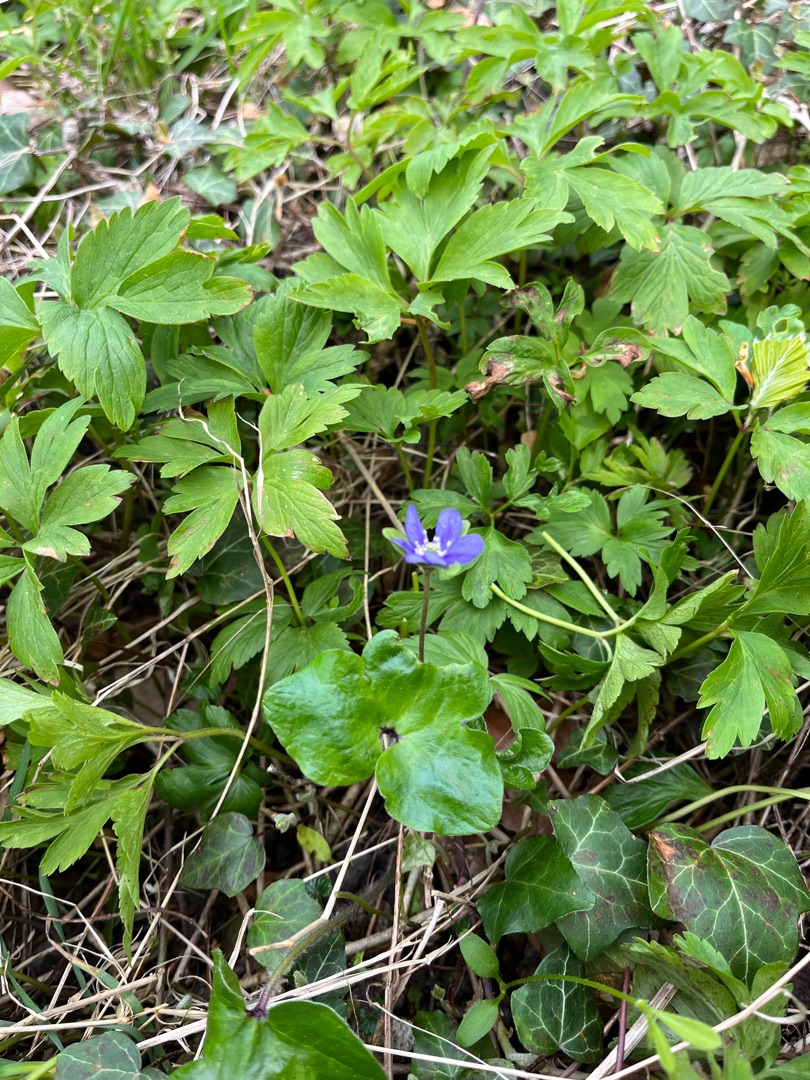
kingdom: Plantae
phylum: Tracheophyta
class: Magnoliopsida
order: Ranunculales
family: Ranunculaceae
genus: Hepatica
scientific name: Hepatica nobilis
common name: Blå anemone
